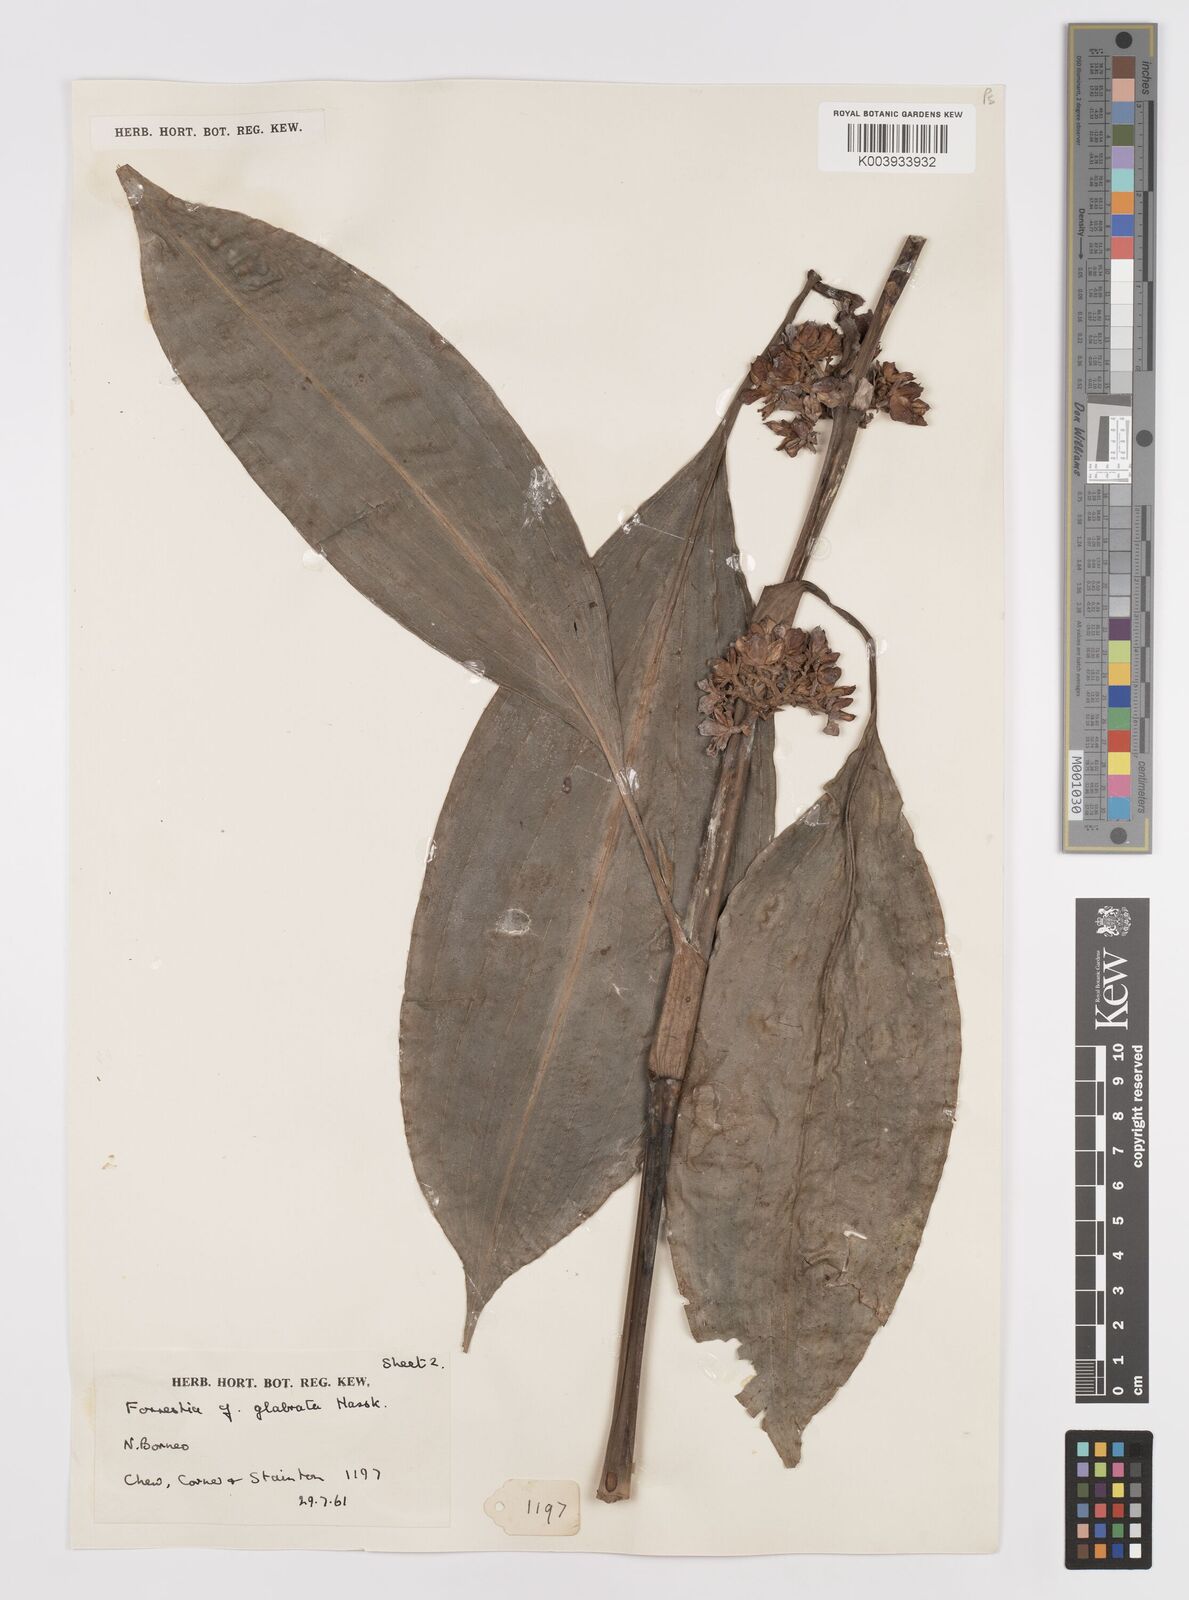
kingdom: Plantae
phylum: Tracheophyta
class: Liliopsida
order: Commelinales
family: Commelinaceae
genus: Amischotolype
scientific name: Amischotolype glabrata
